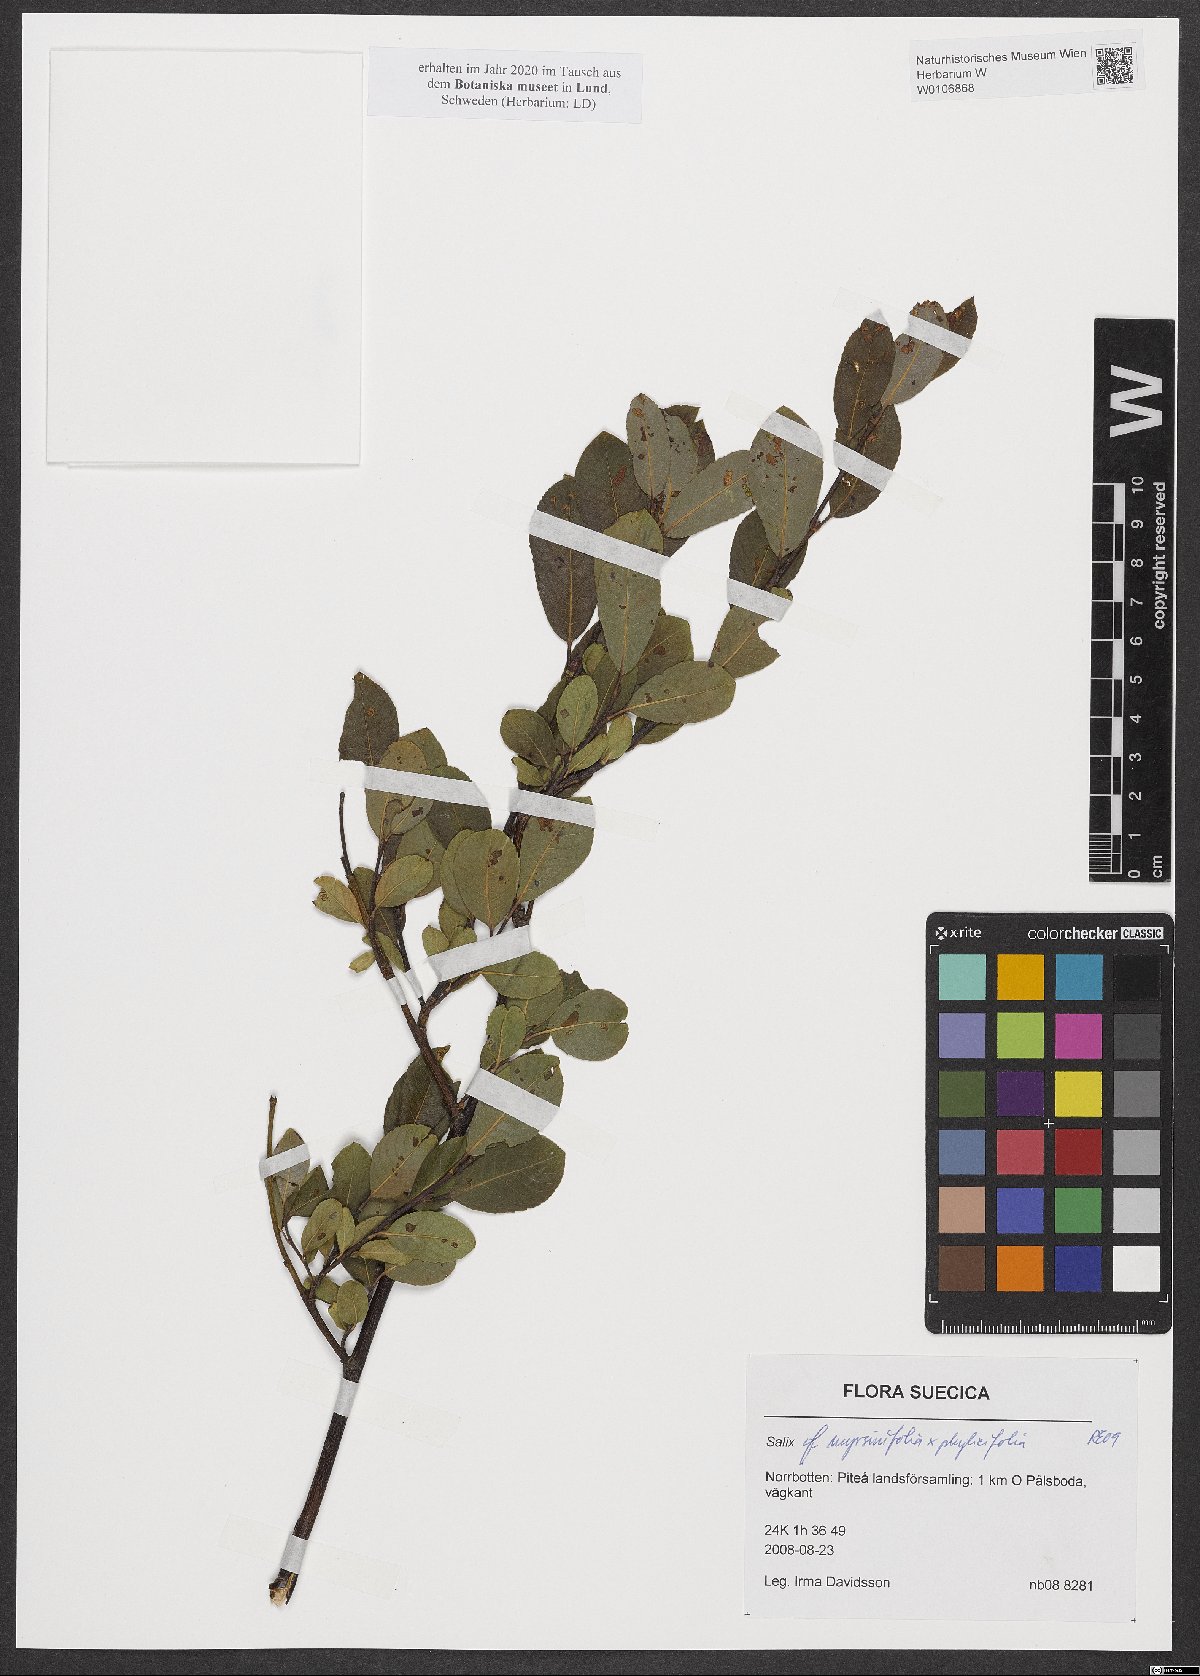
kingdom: Plantae
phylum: Tracheophyta
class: Magnoliopsida
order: Malpighiales
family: Salicaceae
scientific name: Salicaceae
